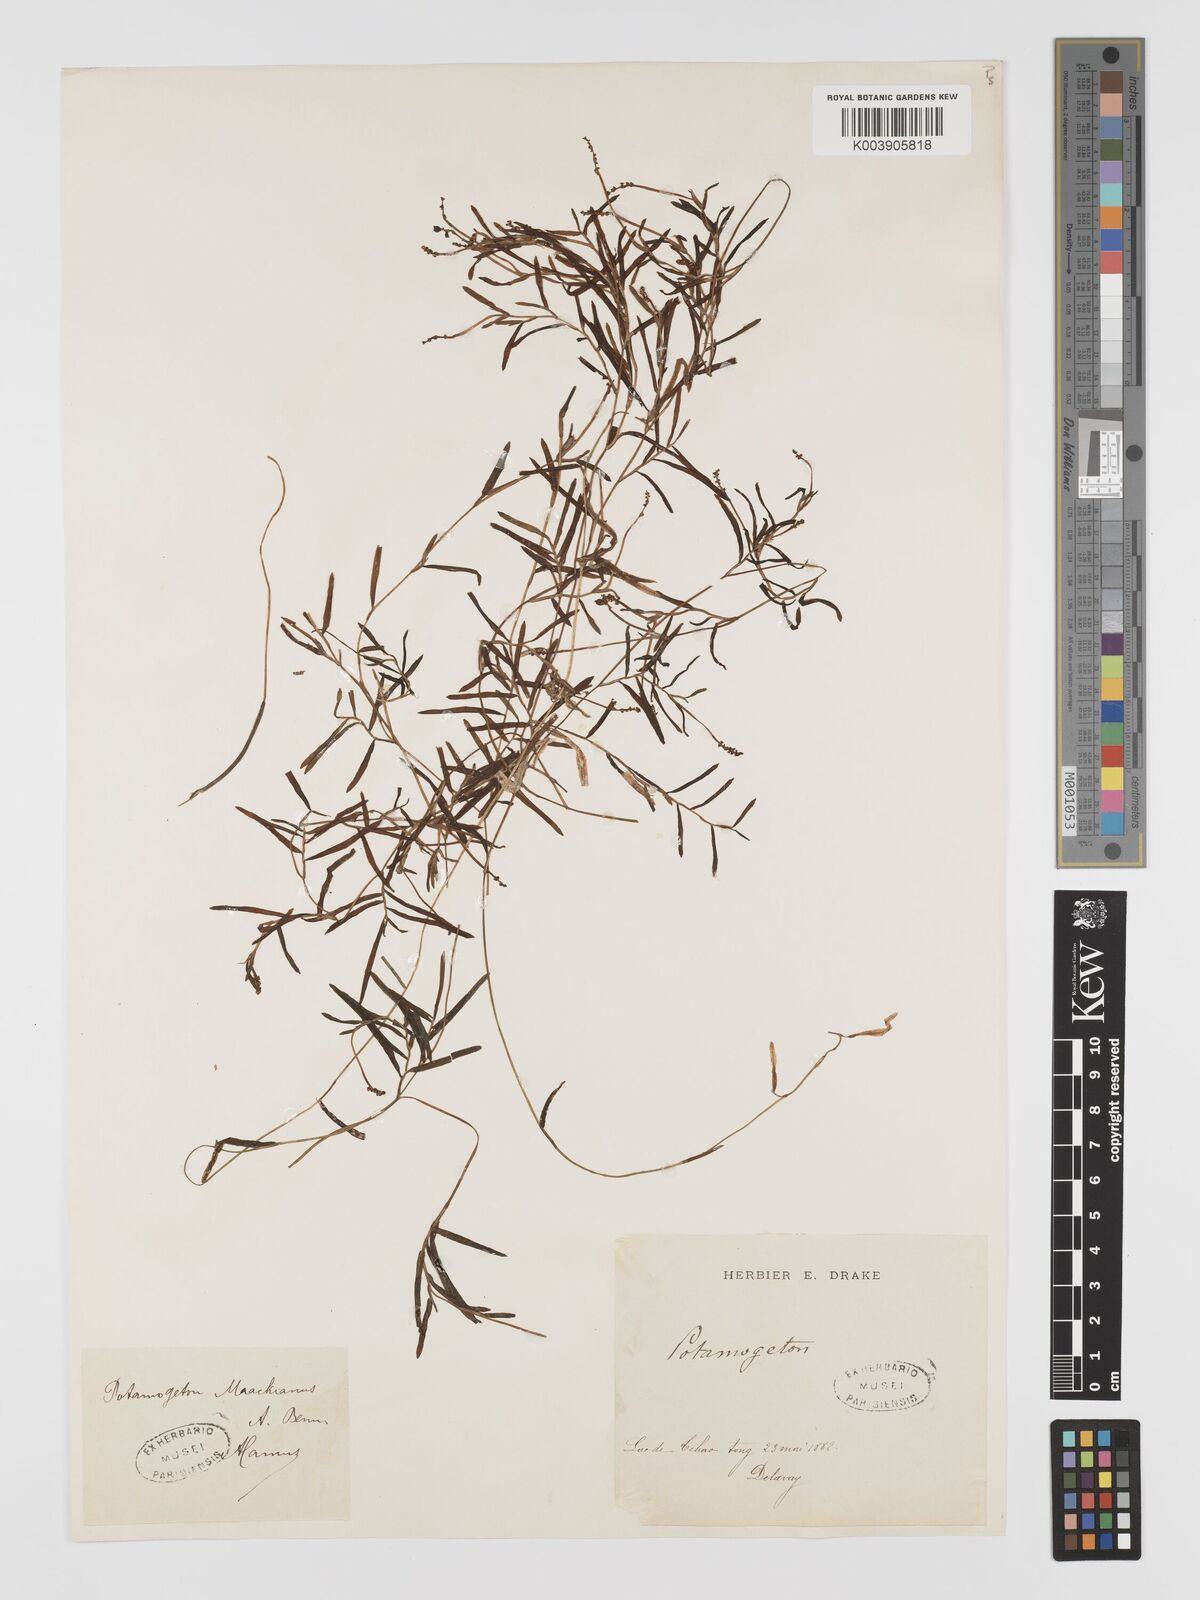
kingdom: Plantae
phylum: Tracheophyta
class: Liliopsida
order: Alismatales
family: Potamogetonaceae
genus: Potamogeton
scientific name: Potamogeton maackianus
